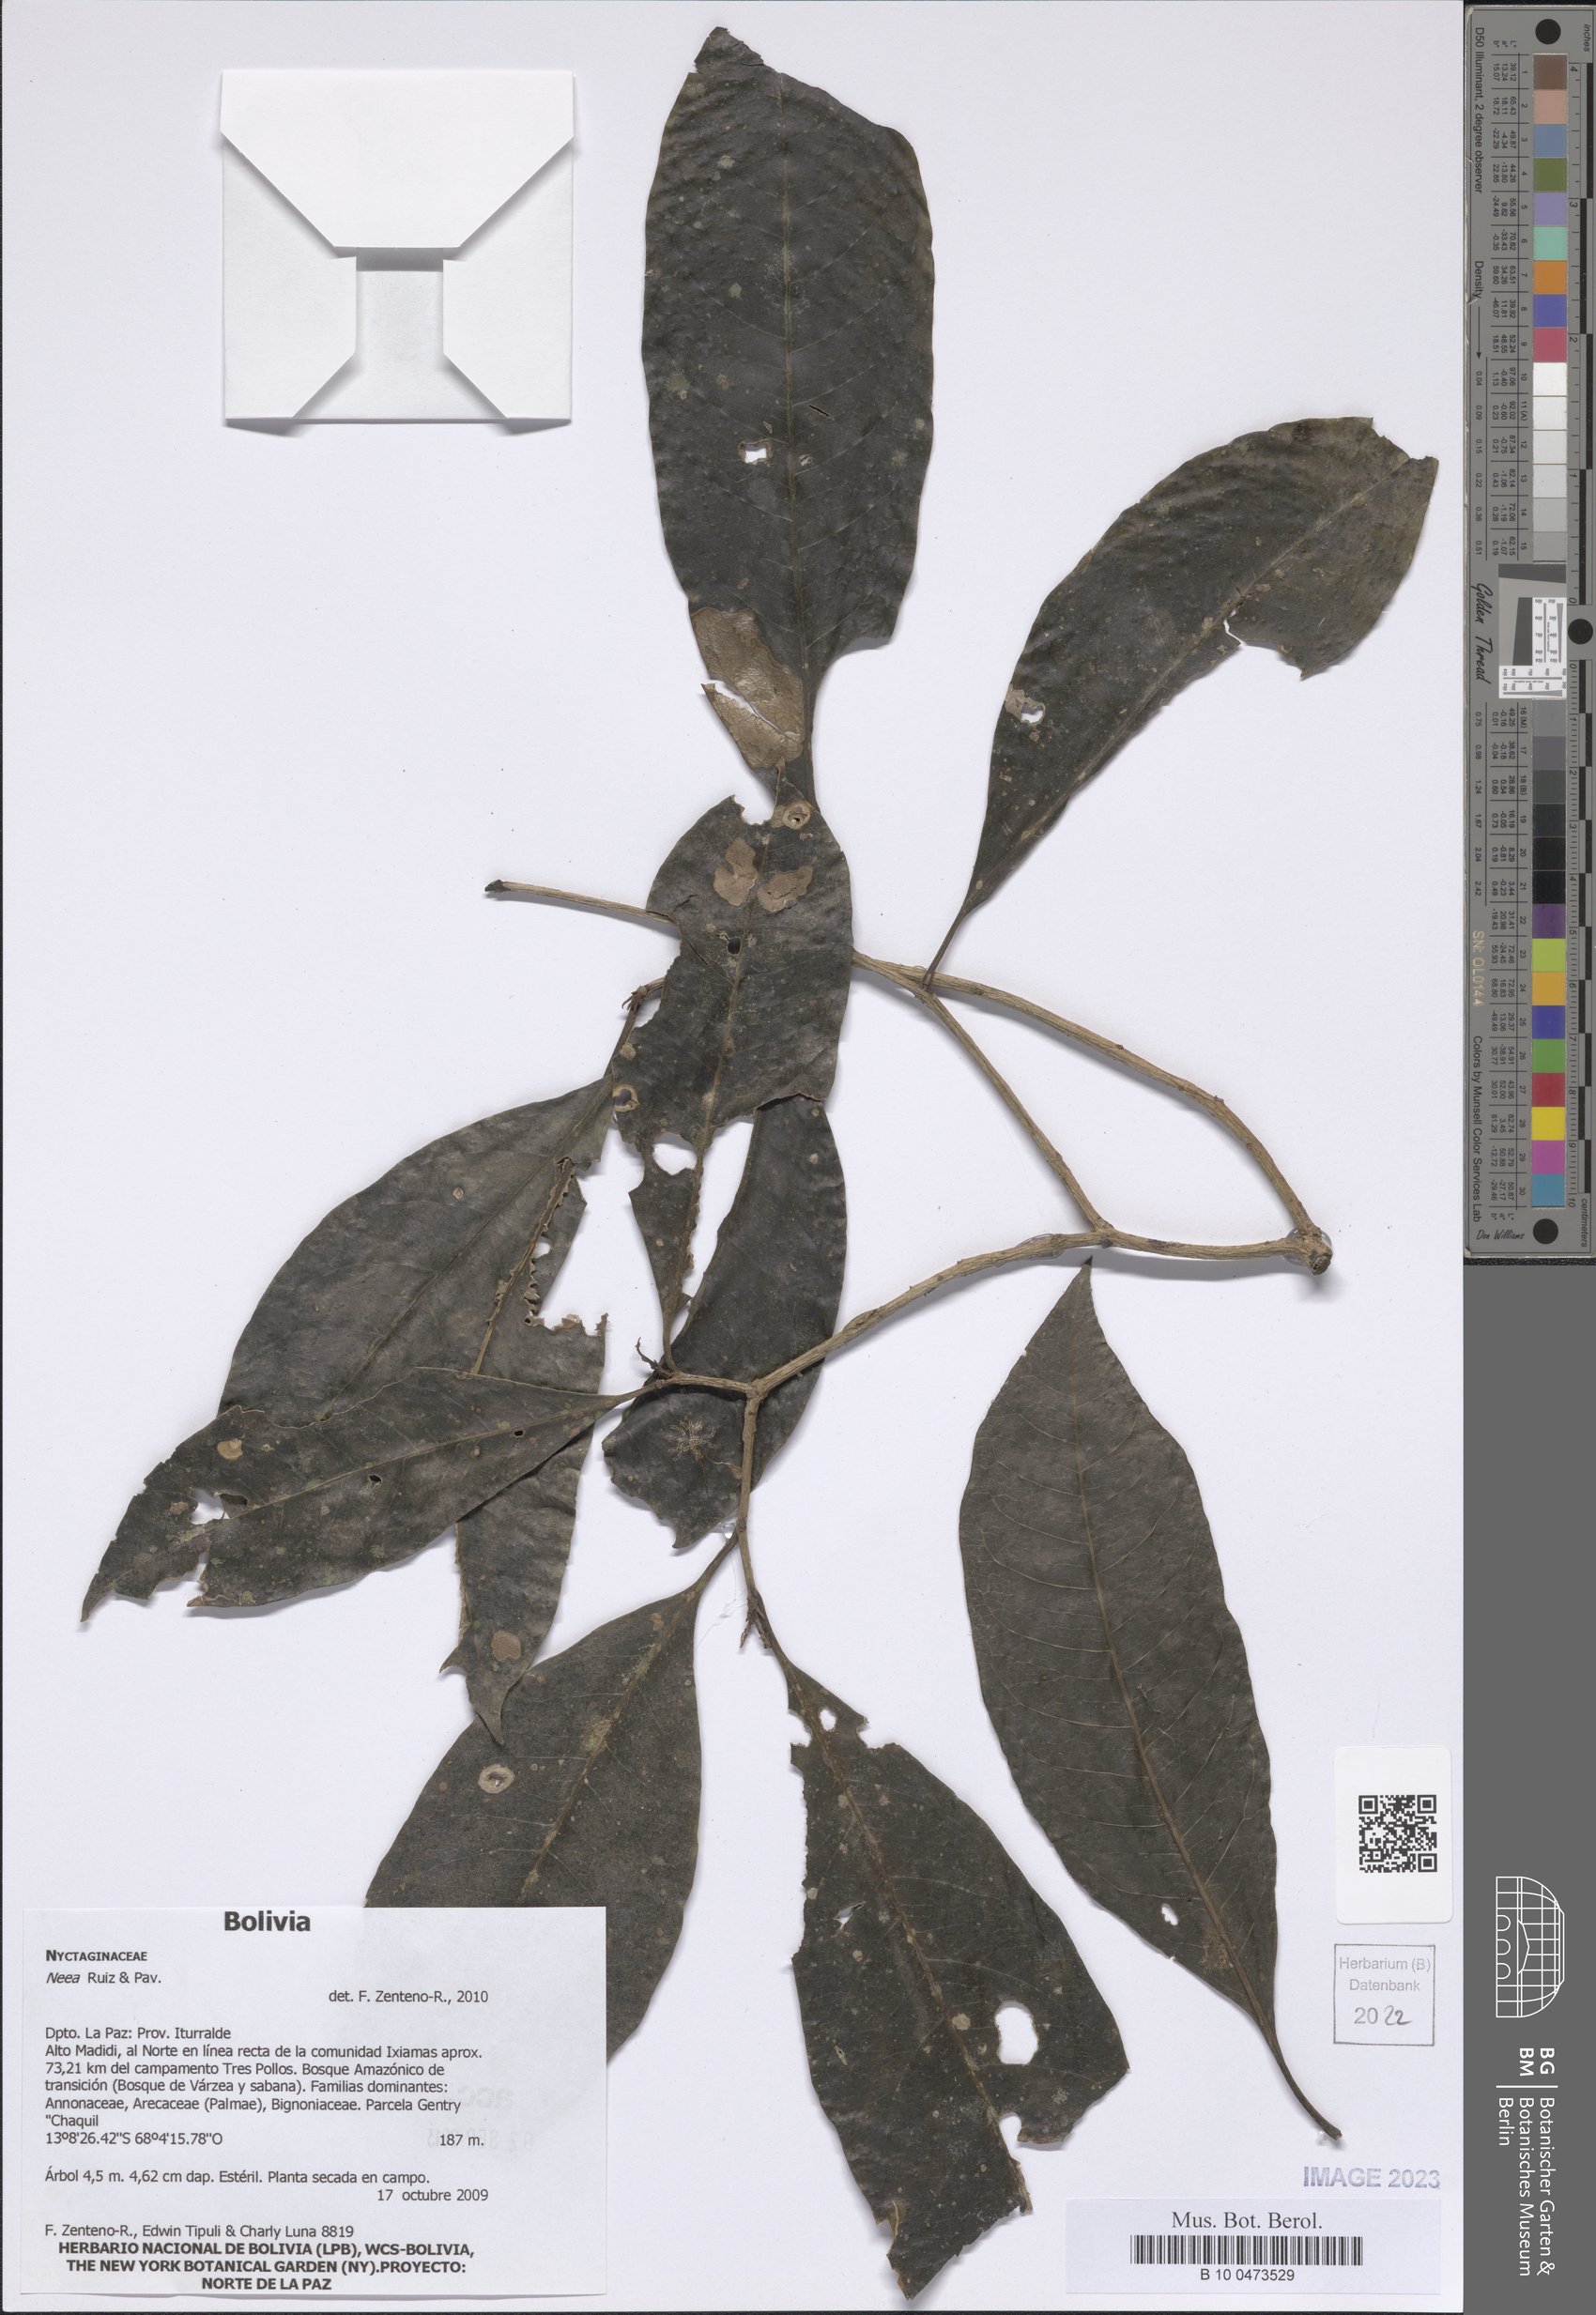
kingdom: Plantae
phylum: Tracheophyta
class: Magnoliopsida
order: Caryophyllales
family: Nyctaginaceae
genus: Neea
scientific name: Neea
